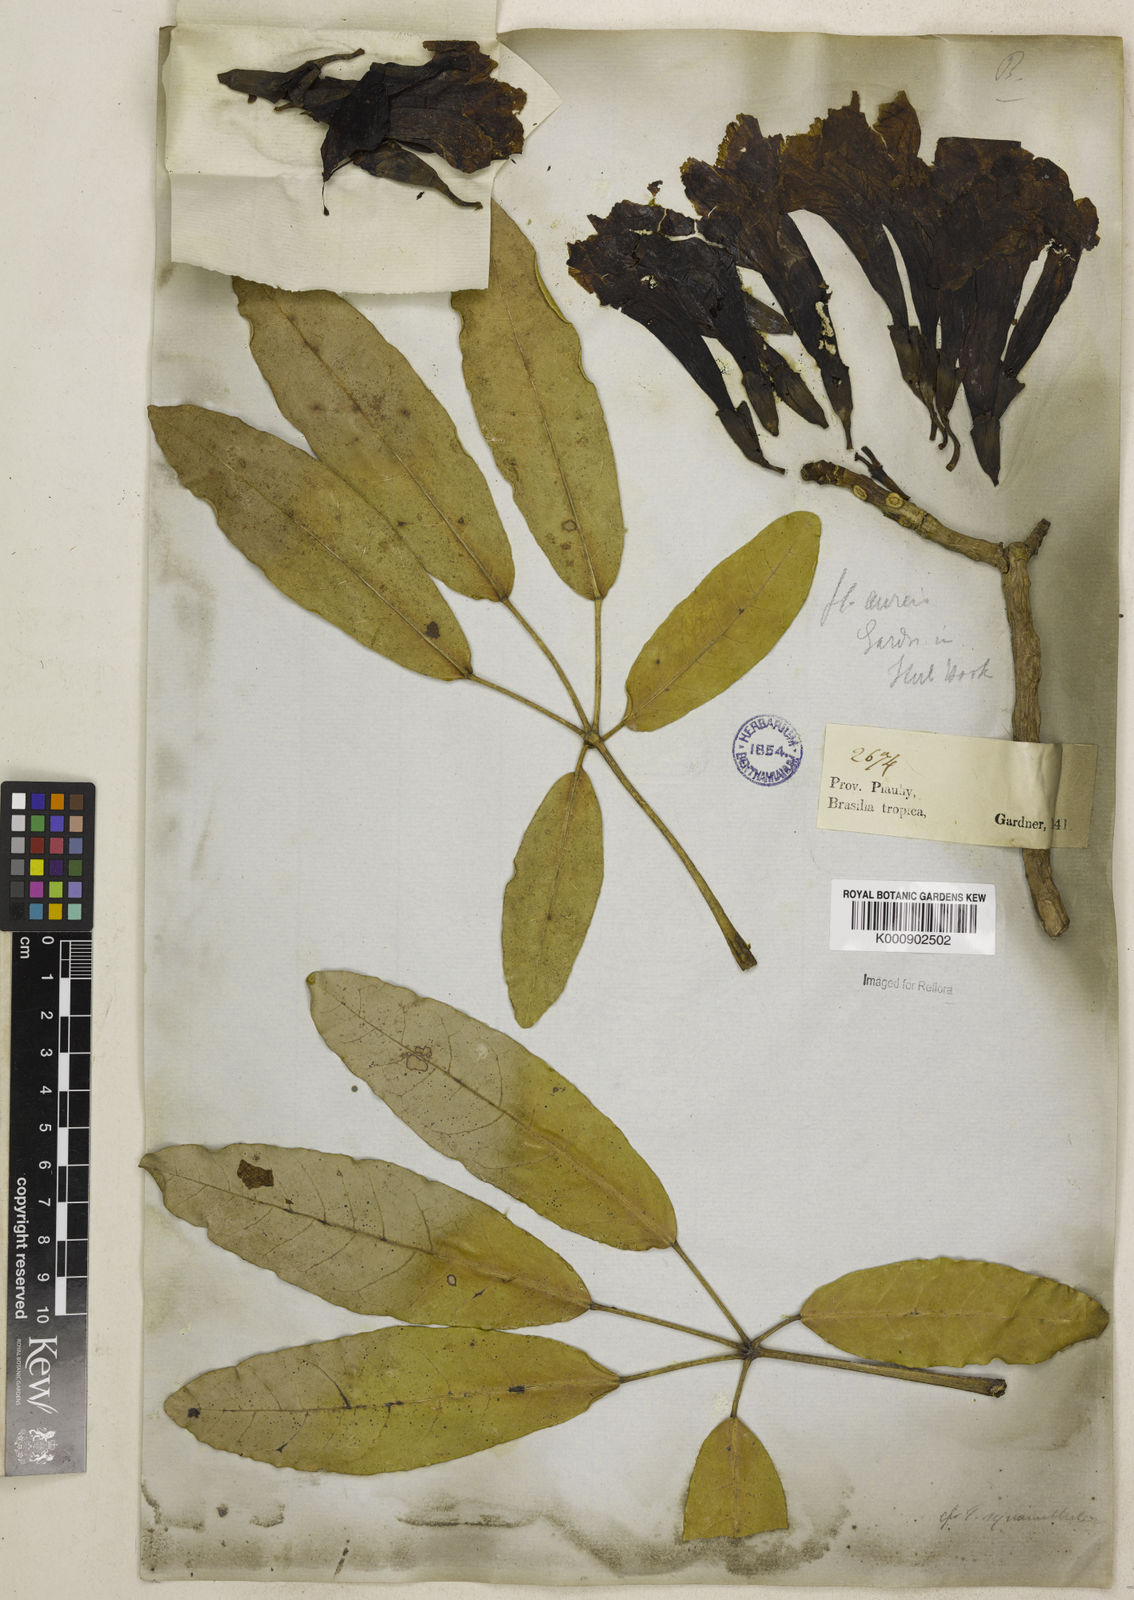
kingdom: Plantae
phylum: Tracheophyta
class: Magnoliopsida
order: Lamiales
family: Bignoniaceae
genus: Tabebuia
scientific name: Tabebuia aurea
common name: Caribbean trumpet-tree
